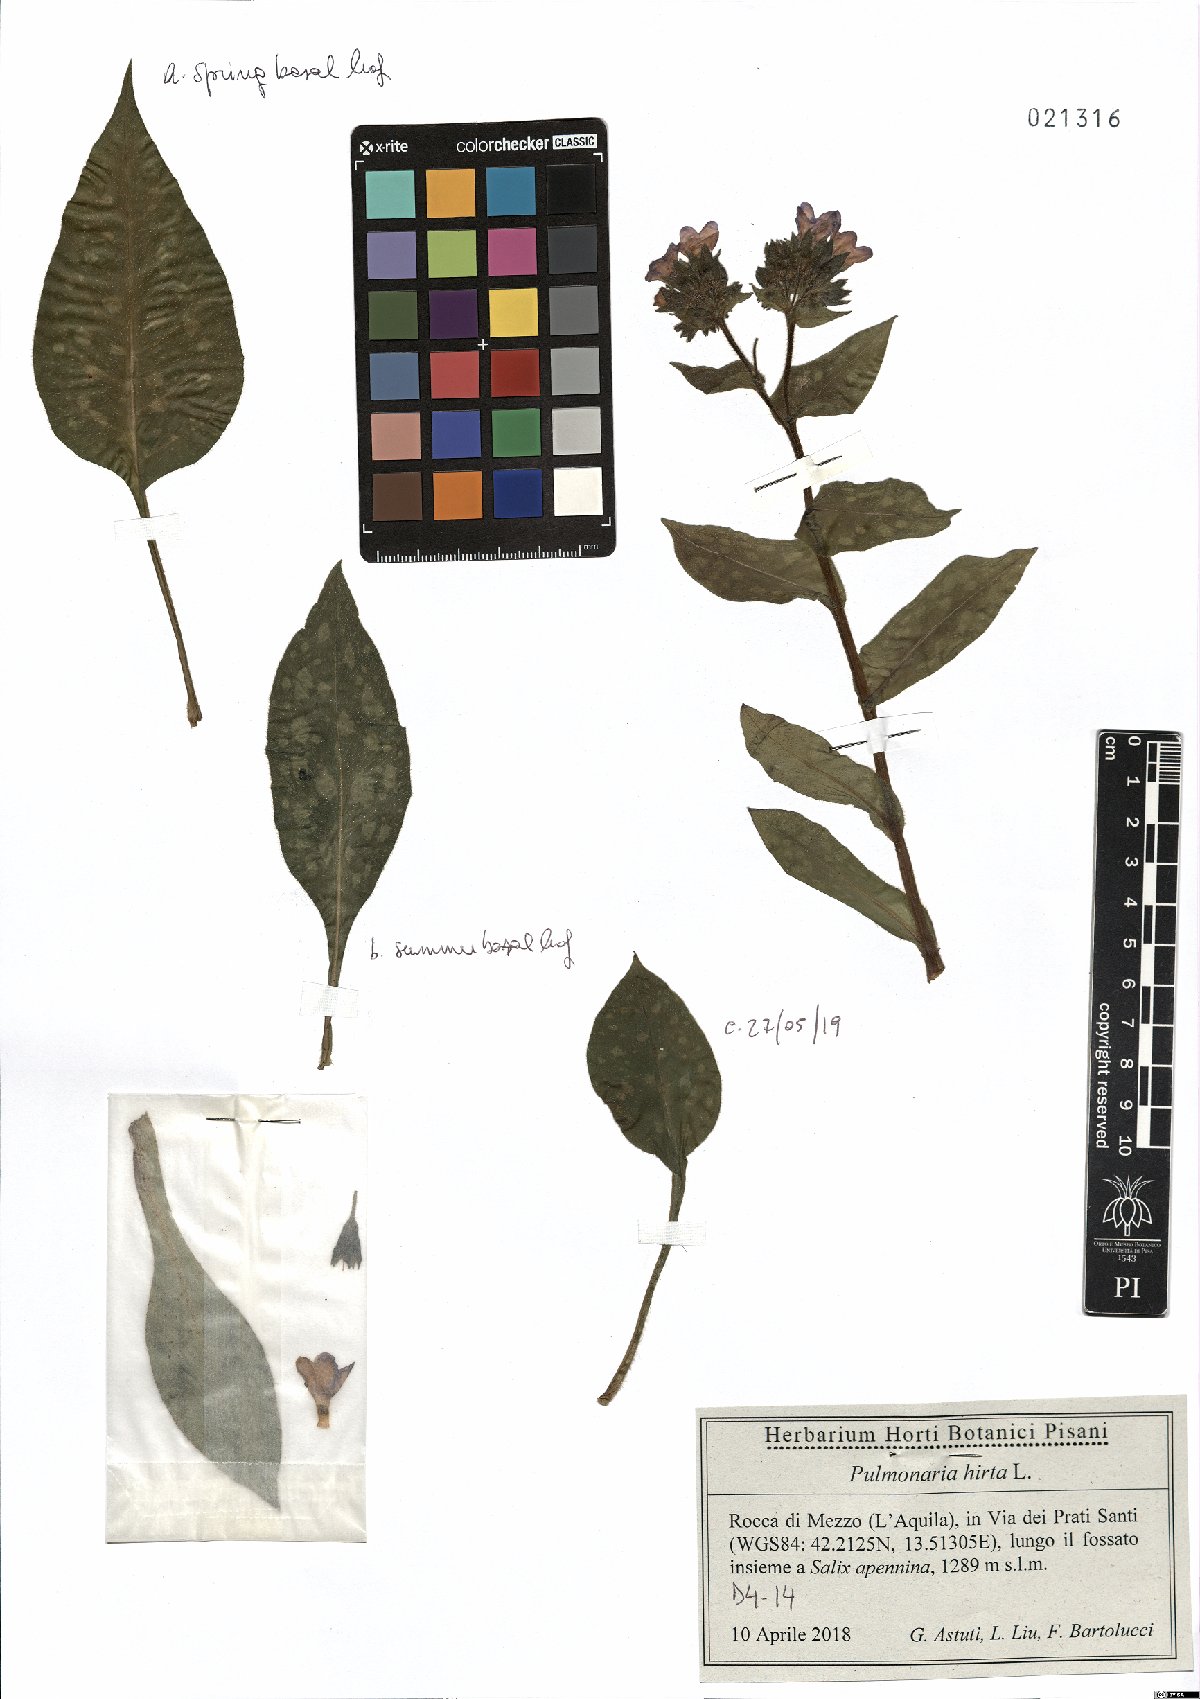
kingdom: Plantae
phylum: Tracheophyta
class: Magnoliopsida
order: Boraginales
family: Boraginaceae
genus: Pulmonaria
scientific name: Pulmonaria hirta
